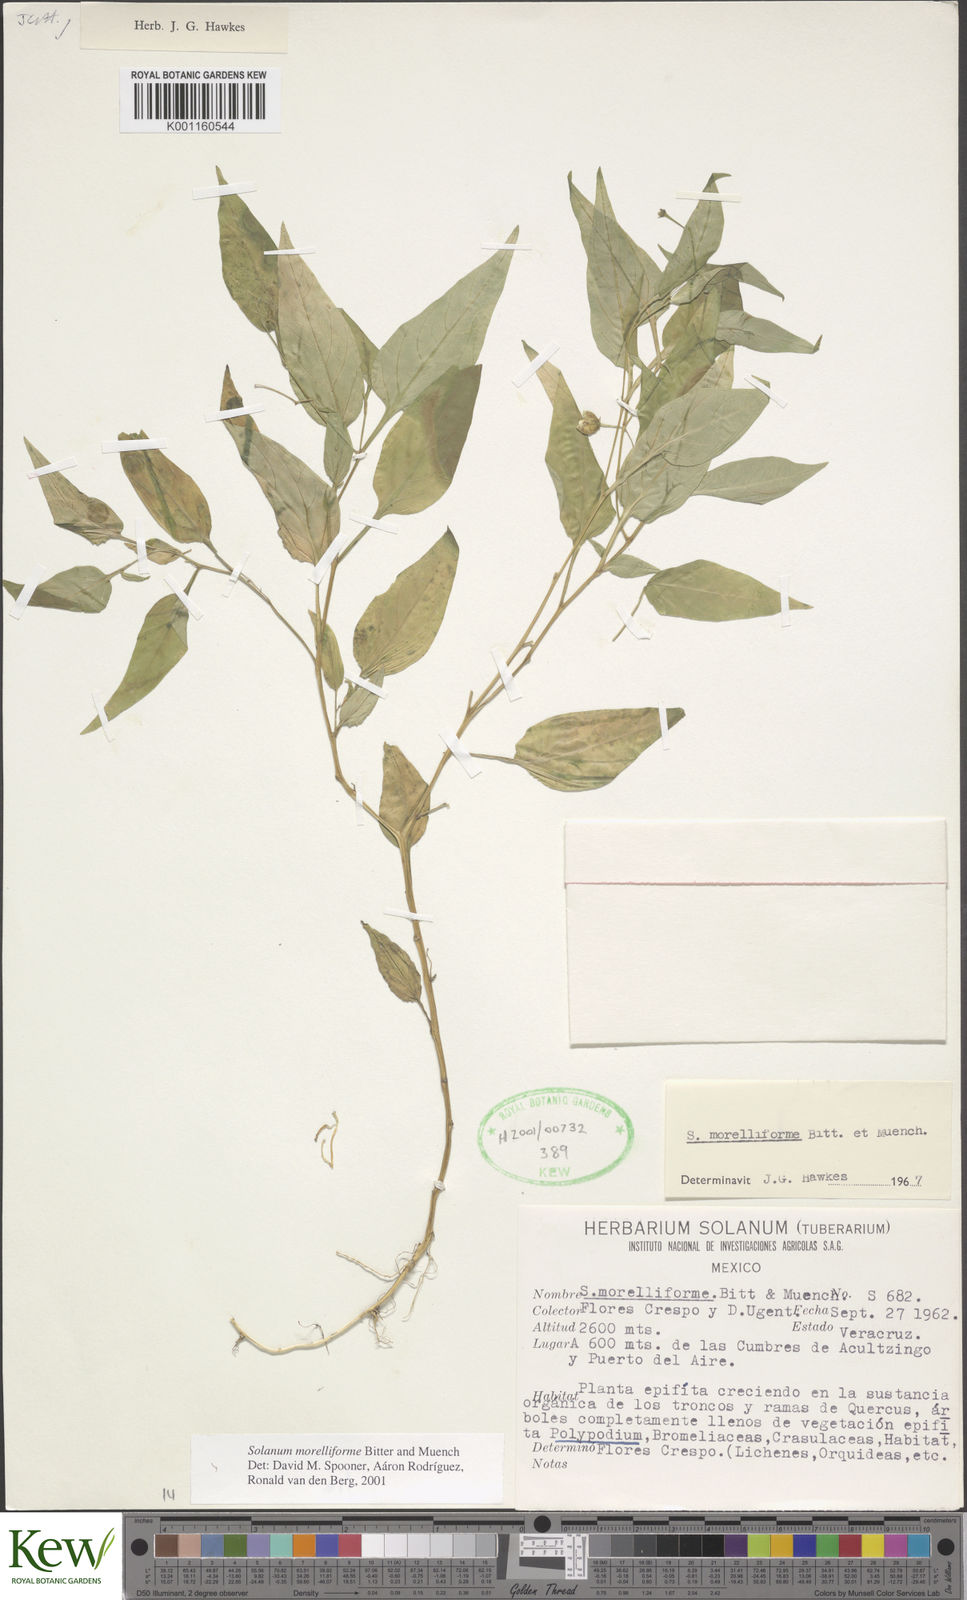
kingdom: Plantae
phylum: Tracheophyta
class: Magnoliopsida
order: Solanales
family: Solanaceae
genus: Solanum
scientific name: Solanum
